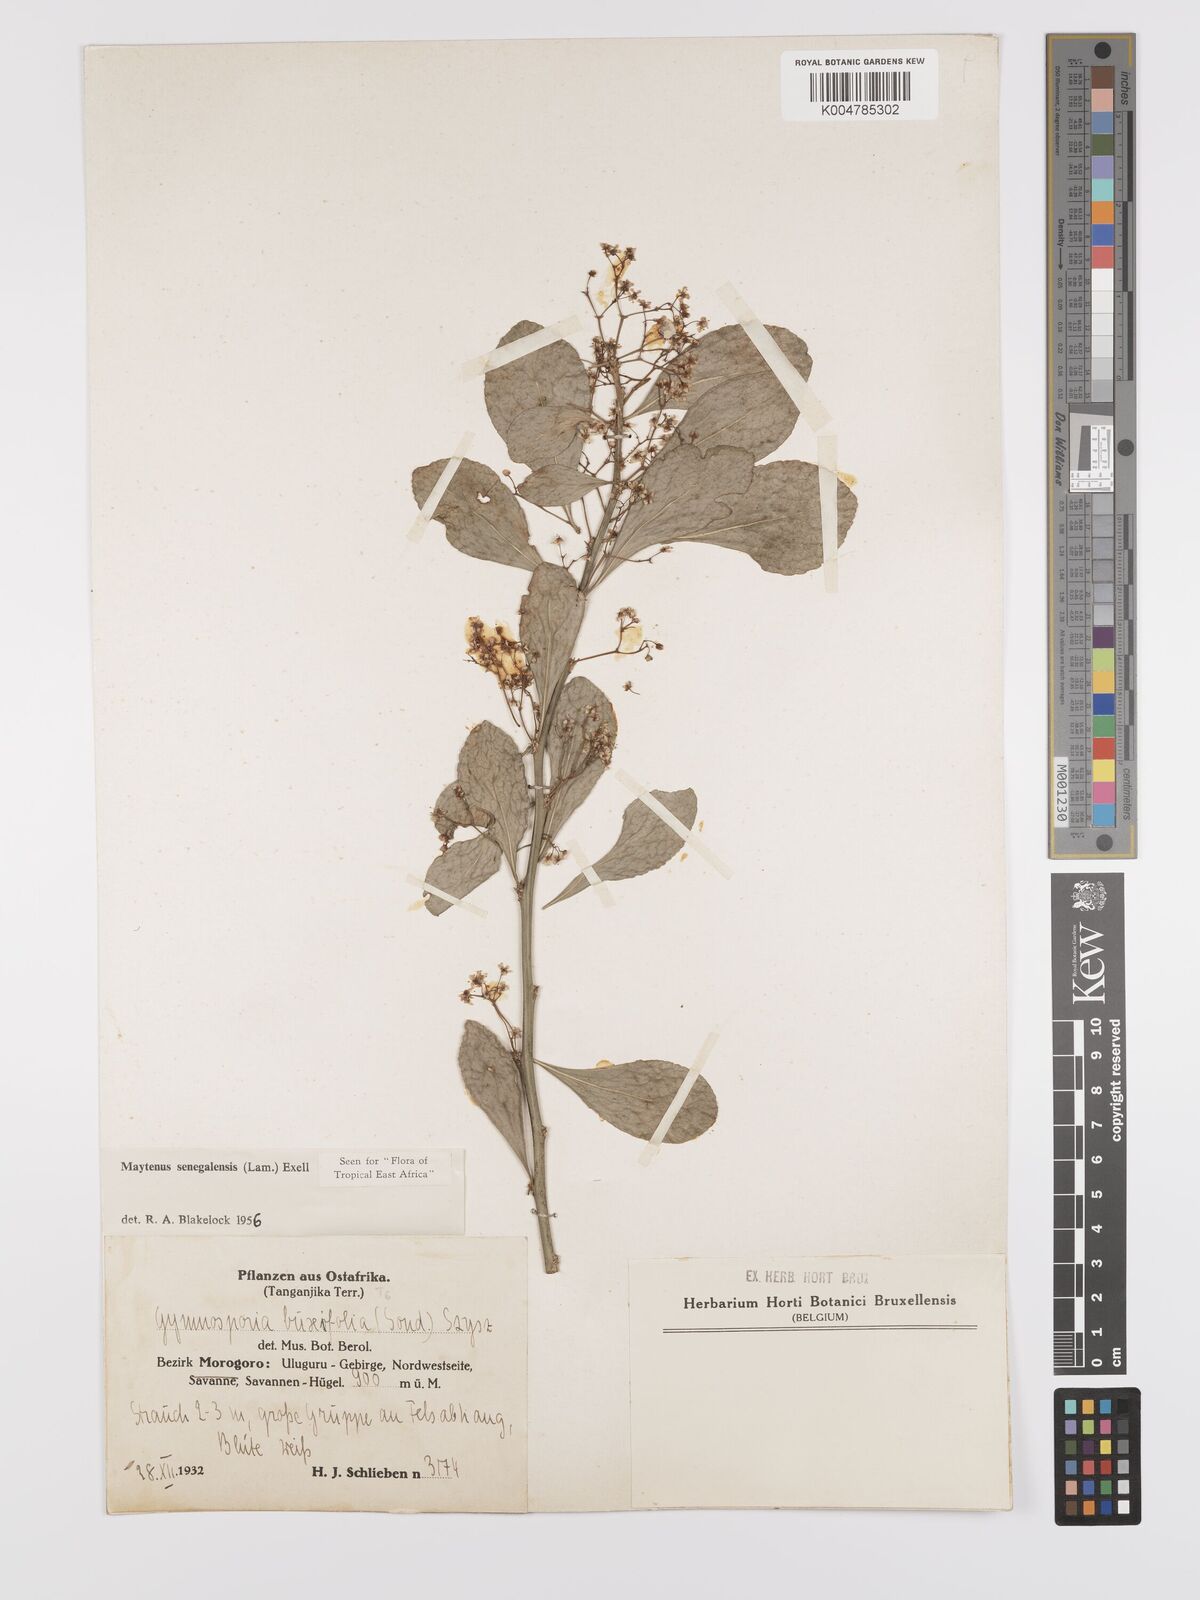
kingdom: Plantae
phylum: Tracheophyta
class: Magnoliopsida
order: Celastrales
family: Celastraceae
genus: Gymnosporia
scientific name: Gymnosporia nguruensis
